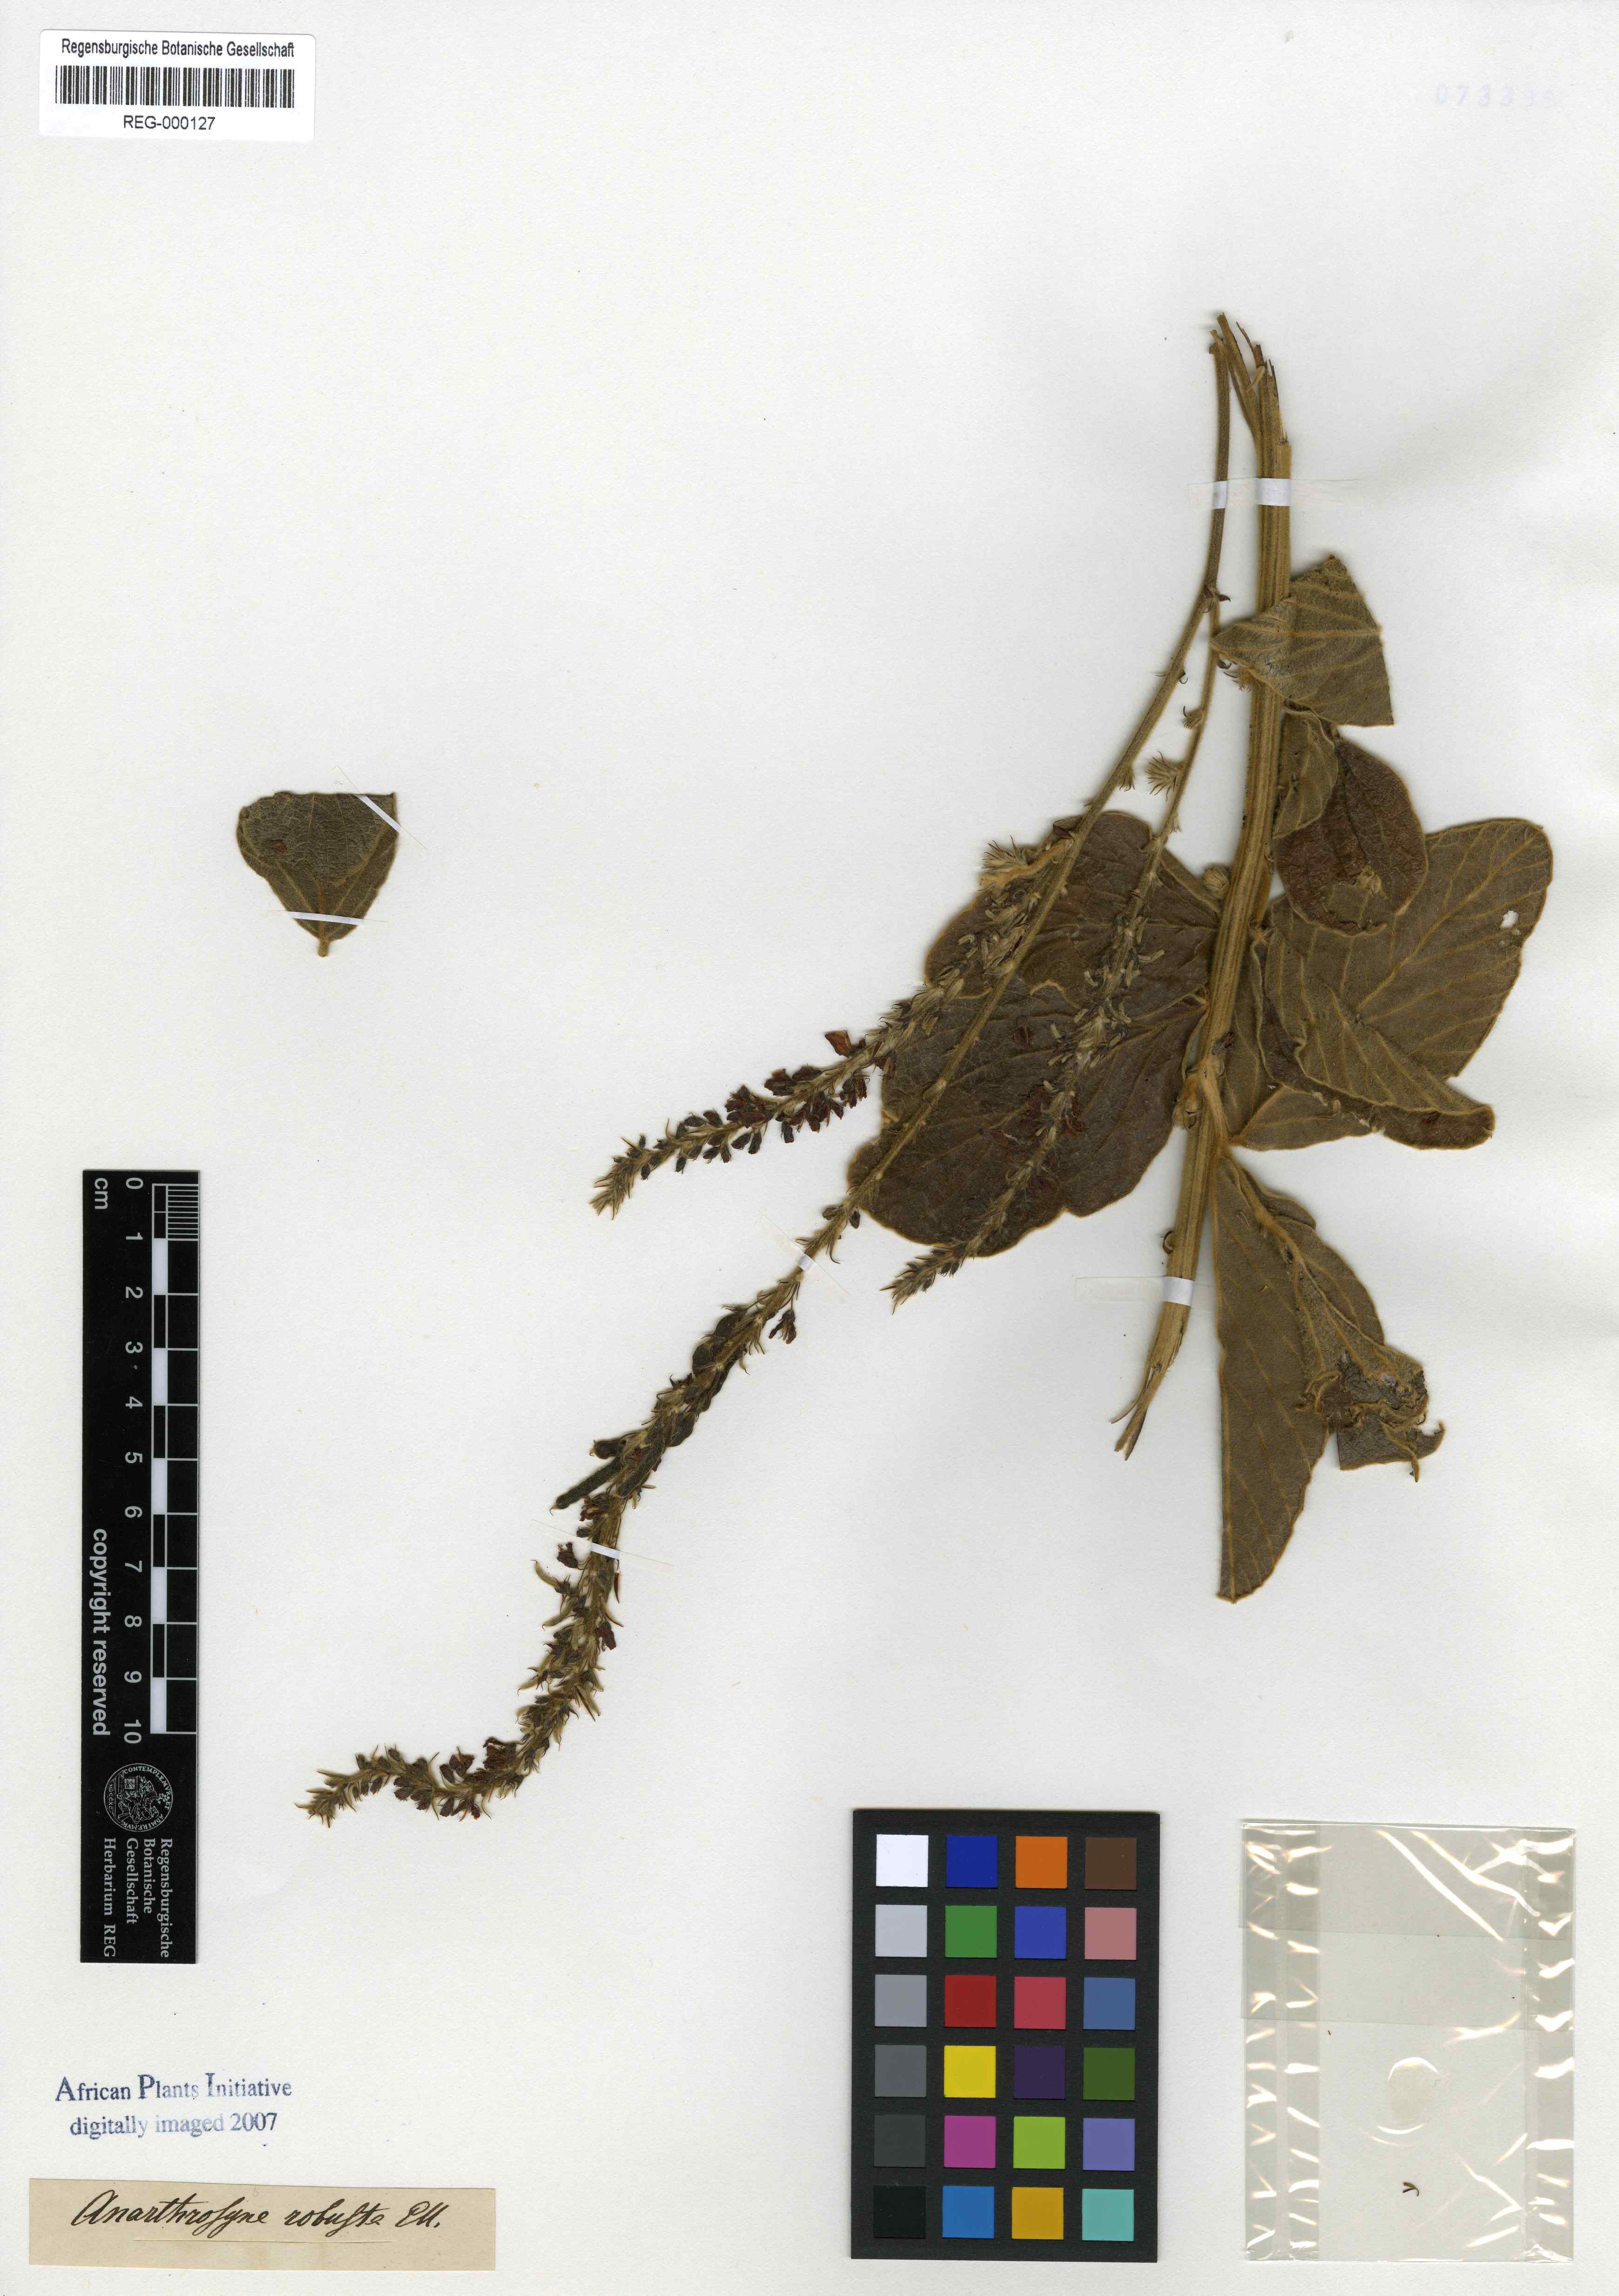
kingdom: Plantae
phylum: Tracheophyta
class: Magnoliopsida
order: Fabales
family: Fabaceae
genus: Pseudarthria
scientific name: Pseudarthria hookeri
